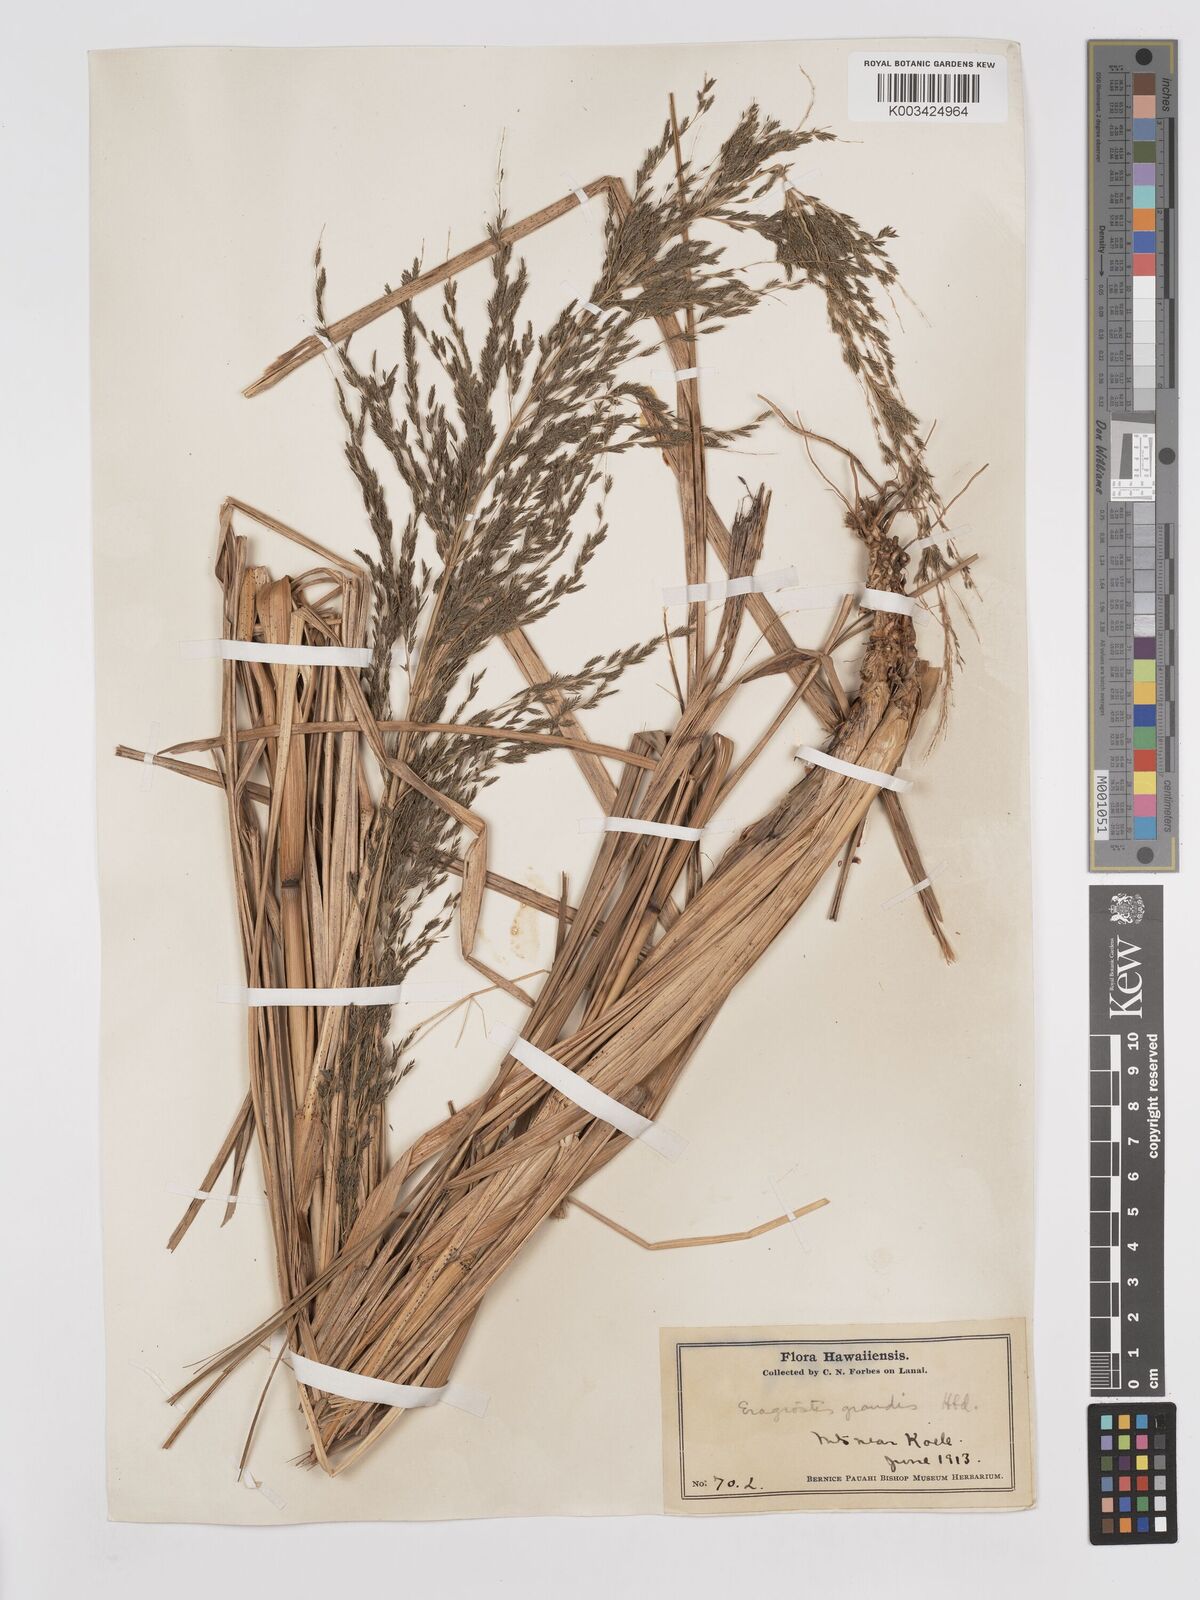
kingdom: Plantae
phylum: Tracheophyta
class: Liliopsida
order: Poales
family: Poaceae
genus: Eragrostis
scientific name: Eragrostis grandis
